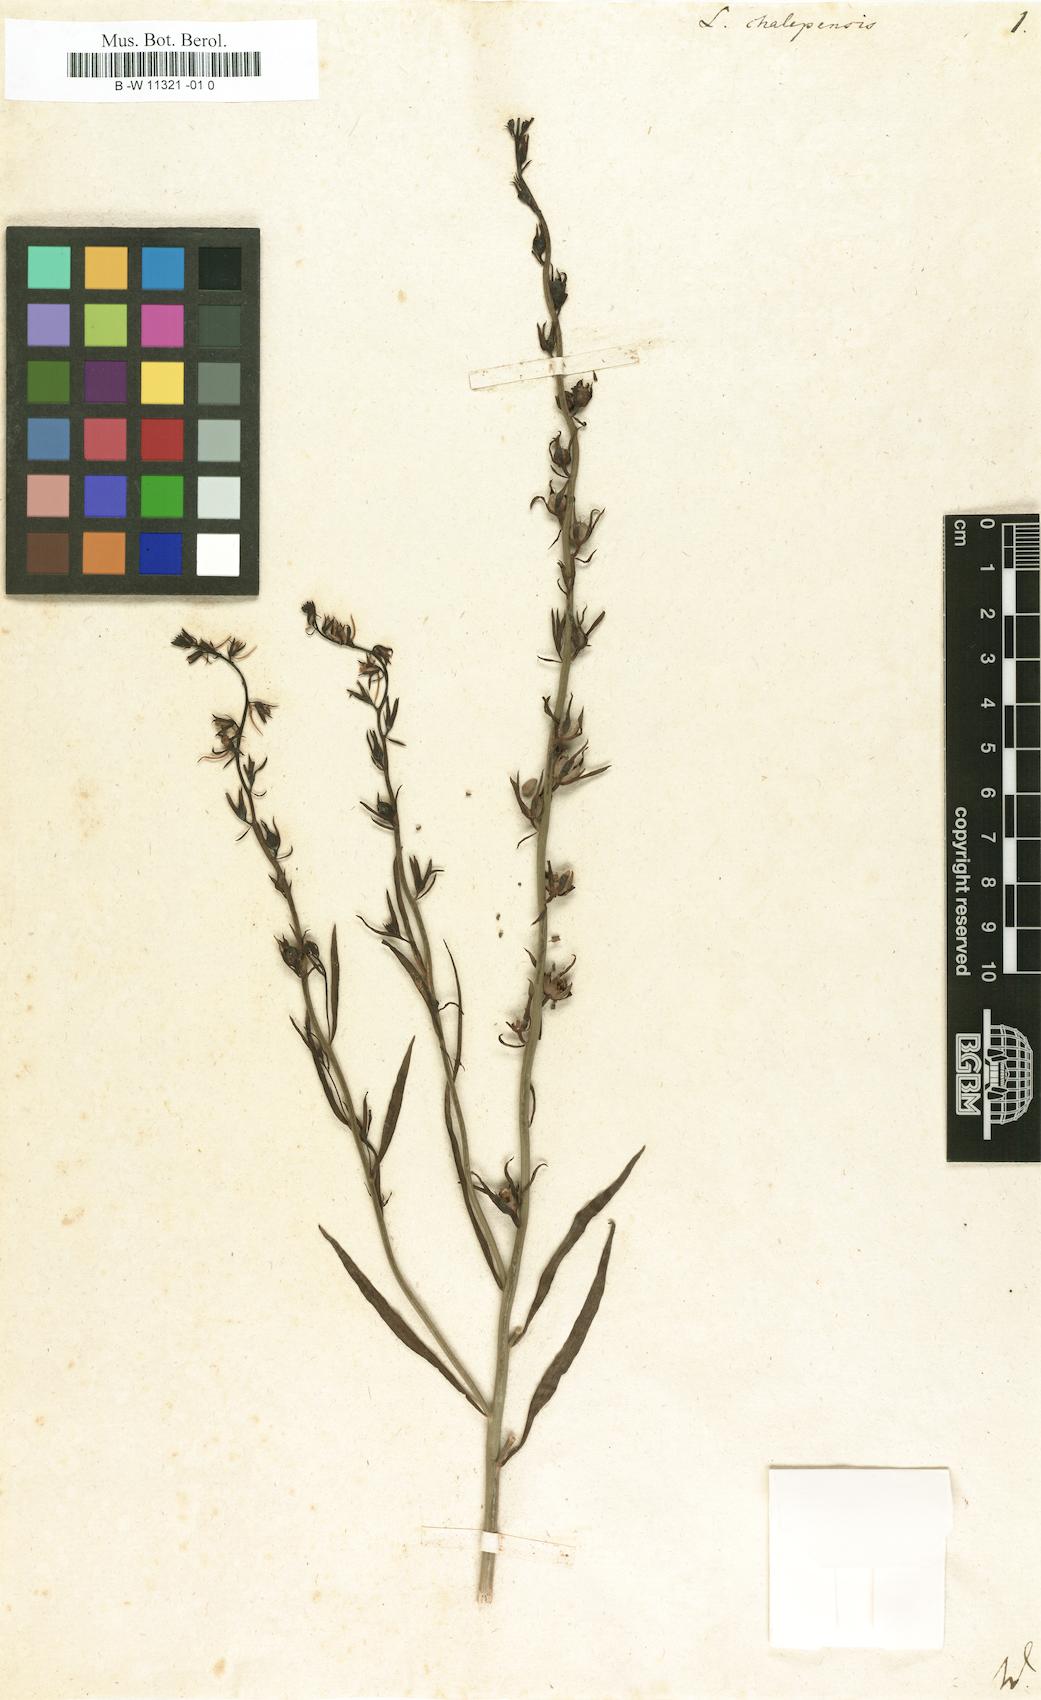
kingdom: Plantae
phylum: Tracheophyta
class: Magnoliopsida
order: Lamiales
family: Plantaginaceae
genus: Linaria
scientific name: Linaria chalepensis
